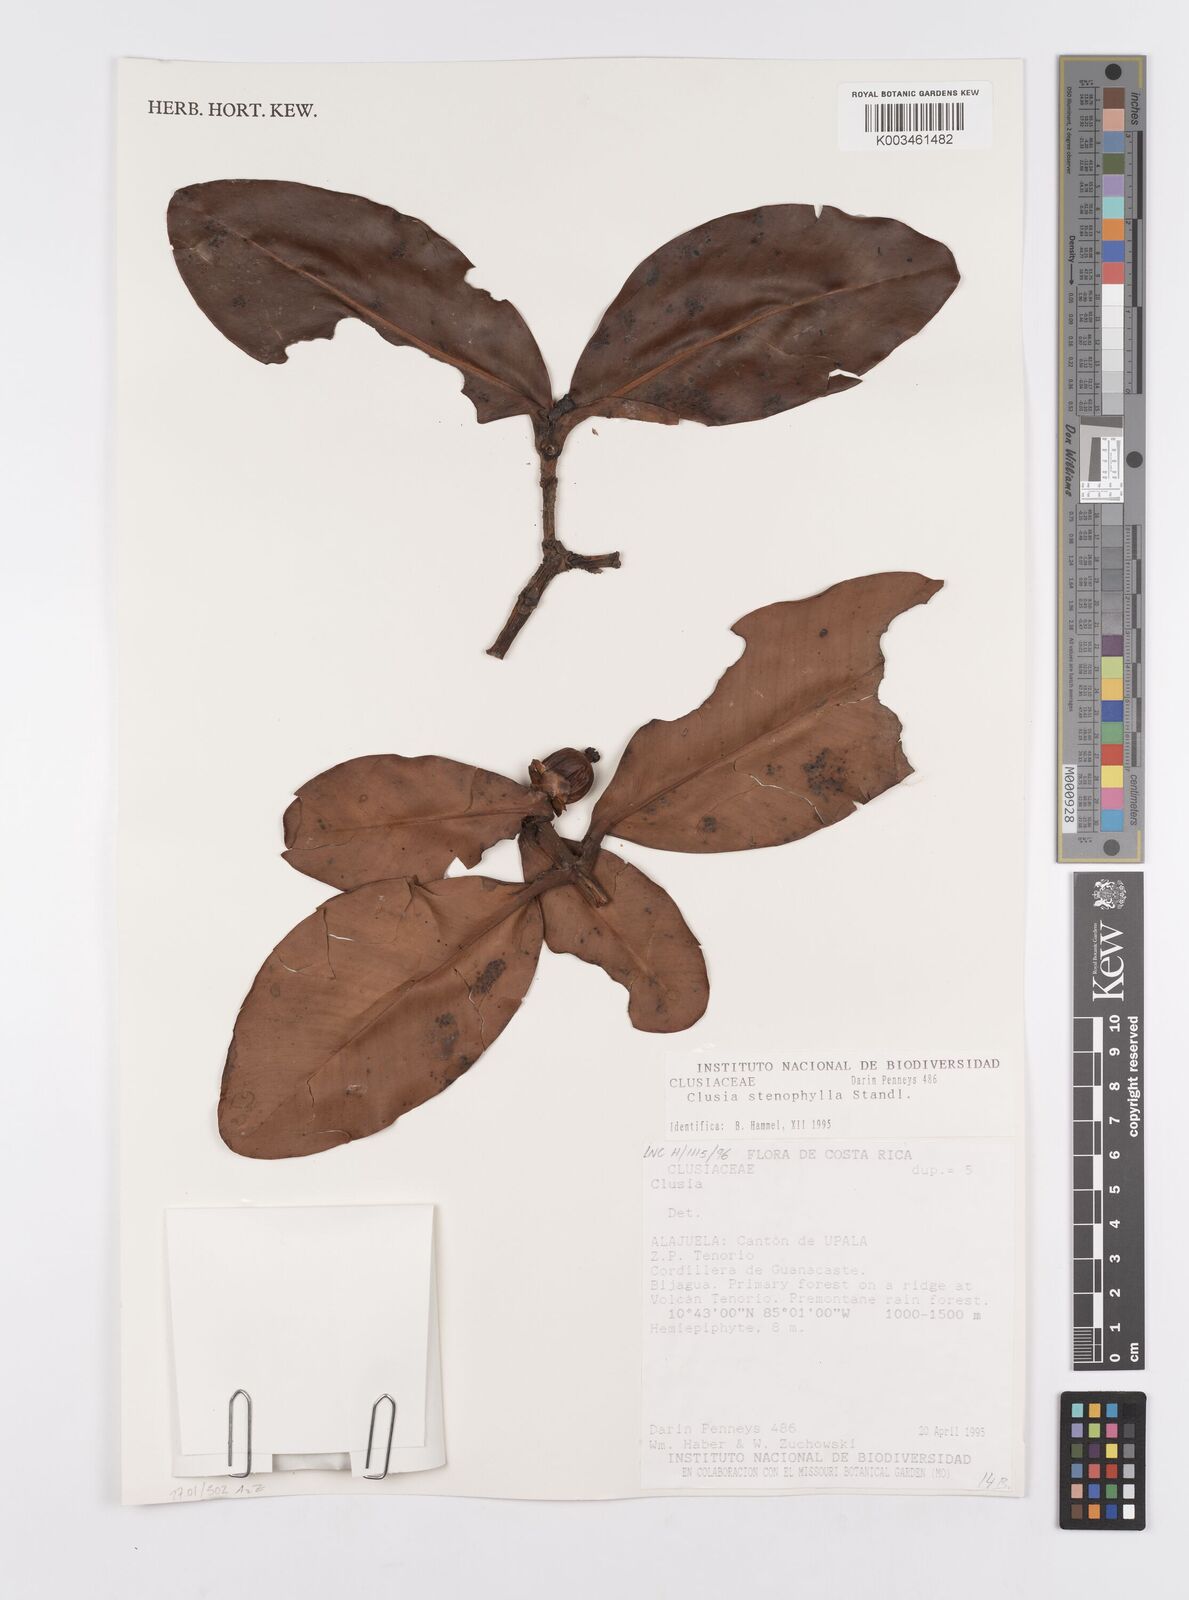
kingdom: Plantae
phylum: Tracheophyta
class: Magnoliopsida
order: Malpighiales
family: Clusiaceae
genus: Clusia
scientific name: Clusia stenophylla
